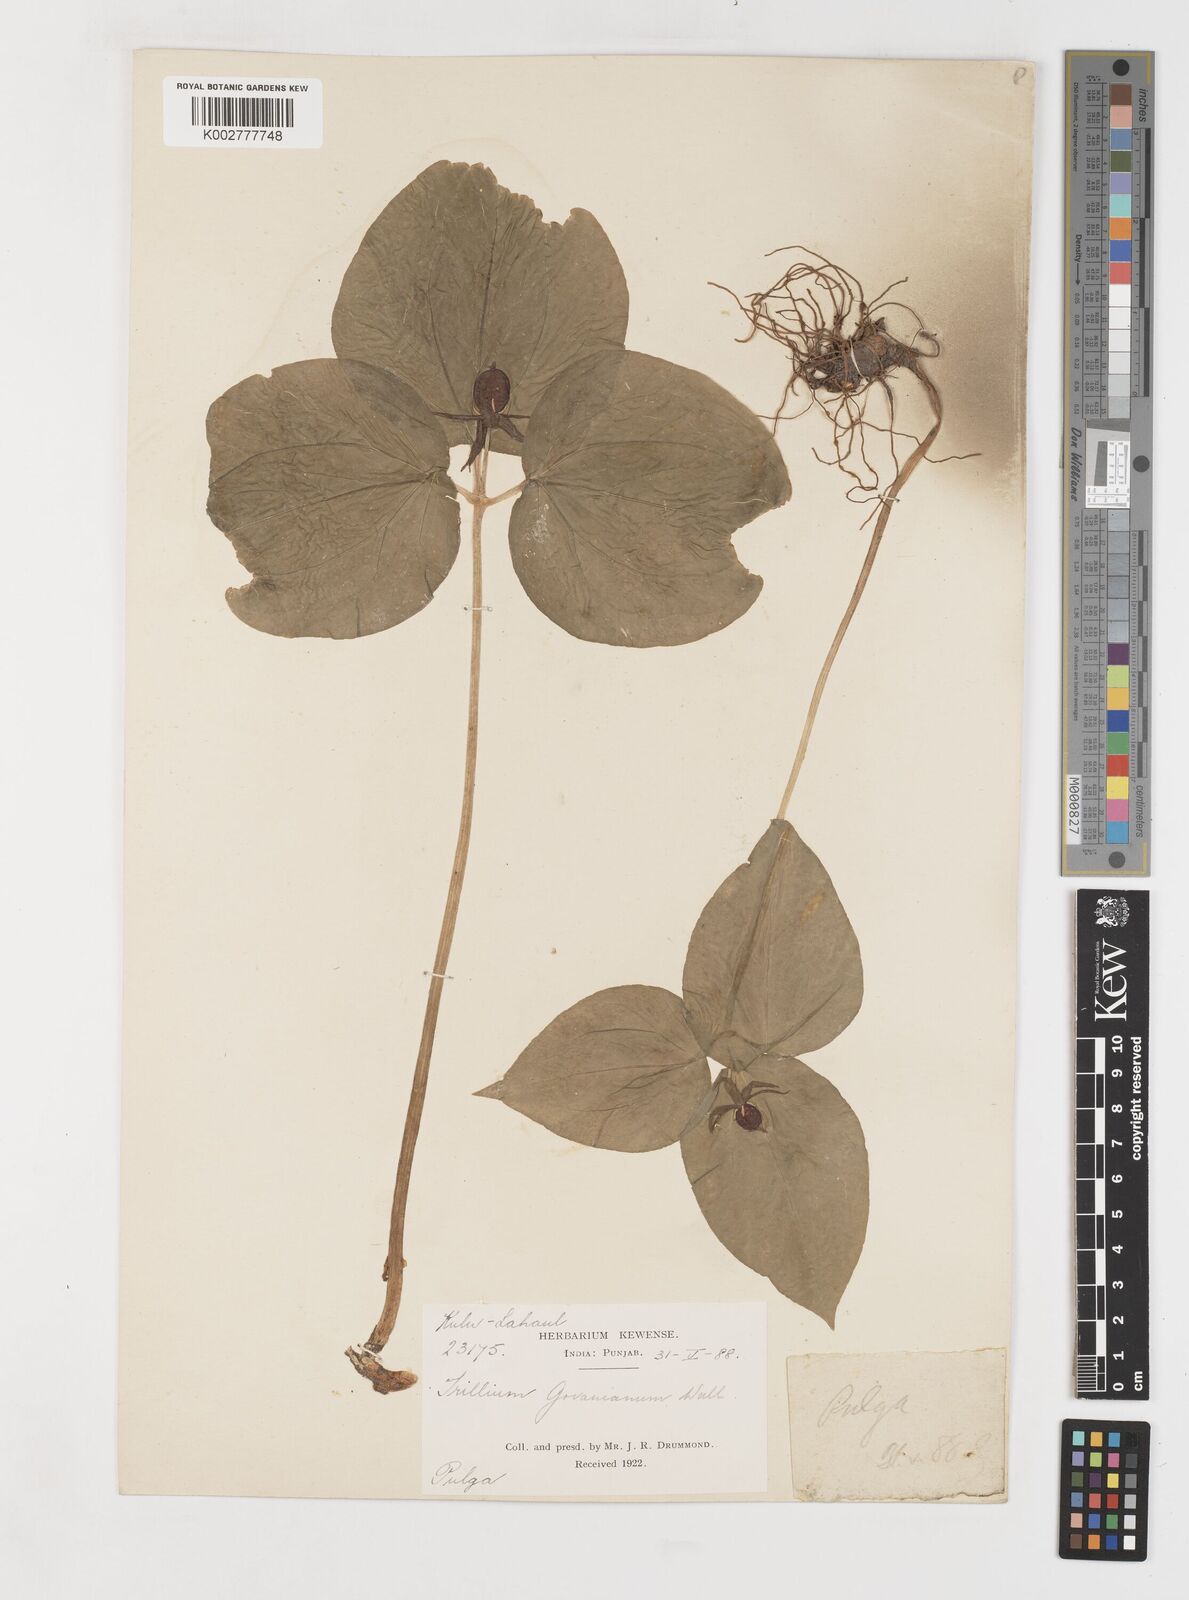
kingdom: Plantae
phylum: Tracheophyta
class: Liliopsida
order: Liliales
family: Melanthiaceae
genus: Trillium
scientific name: Trillium govanianum
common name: Himalayan trillium
